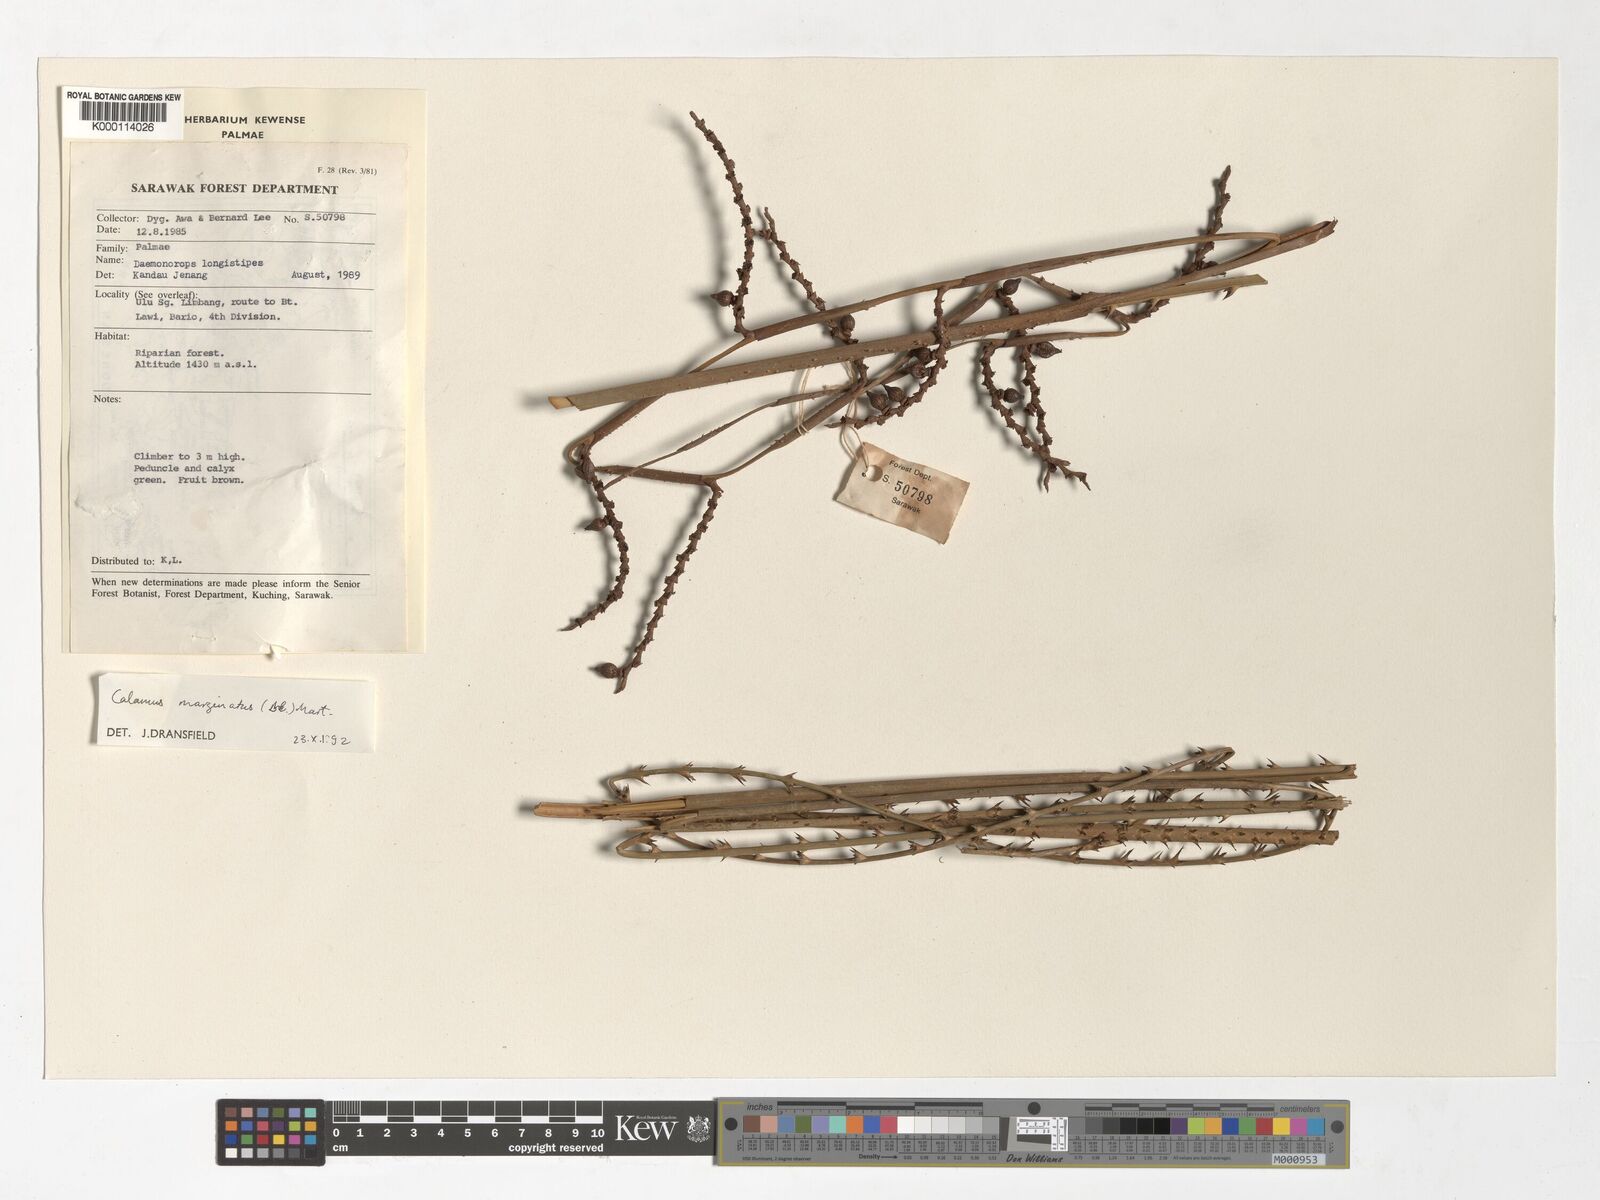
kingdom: Plantae
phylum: Tracheophyta
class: Liliopsida
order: Arecales
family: Arecaceae
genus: Calamus
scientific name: Calamus
